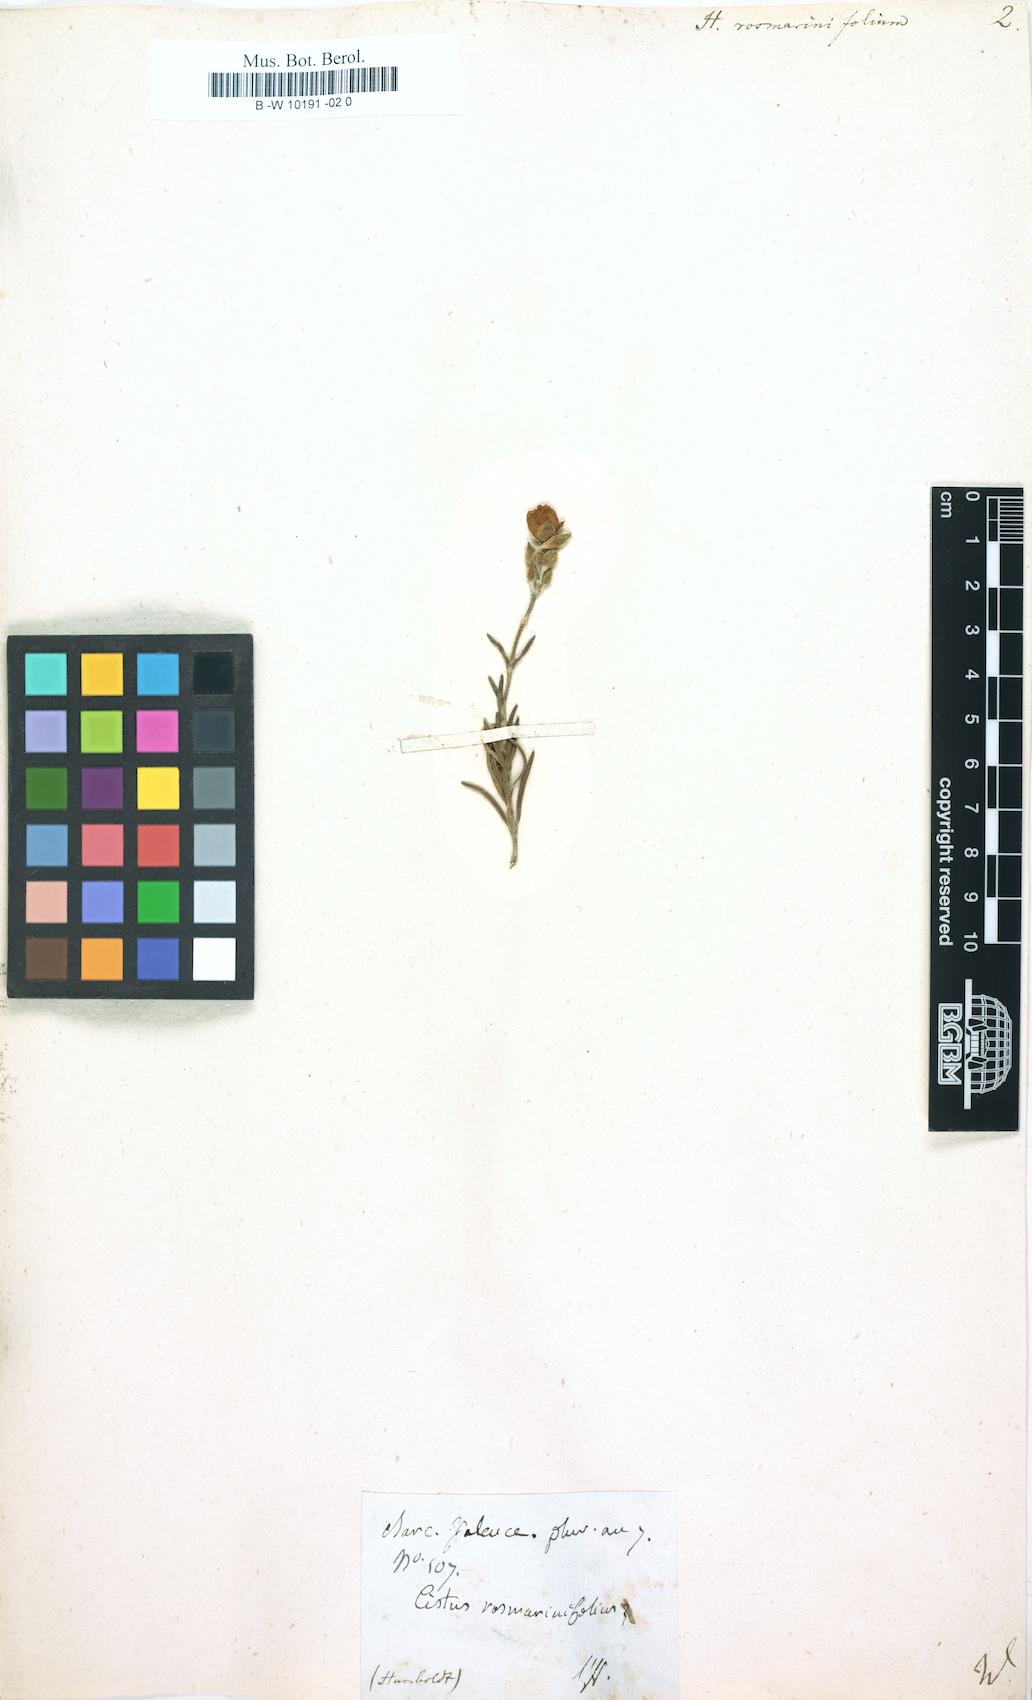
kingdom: Plantae
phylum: Tracheophyta
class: Magnoliopsida
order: Malvales
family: Cistaceae
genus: Helianthemum
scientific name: Helianthemum rosmarinifolium
